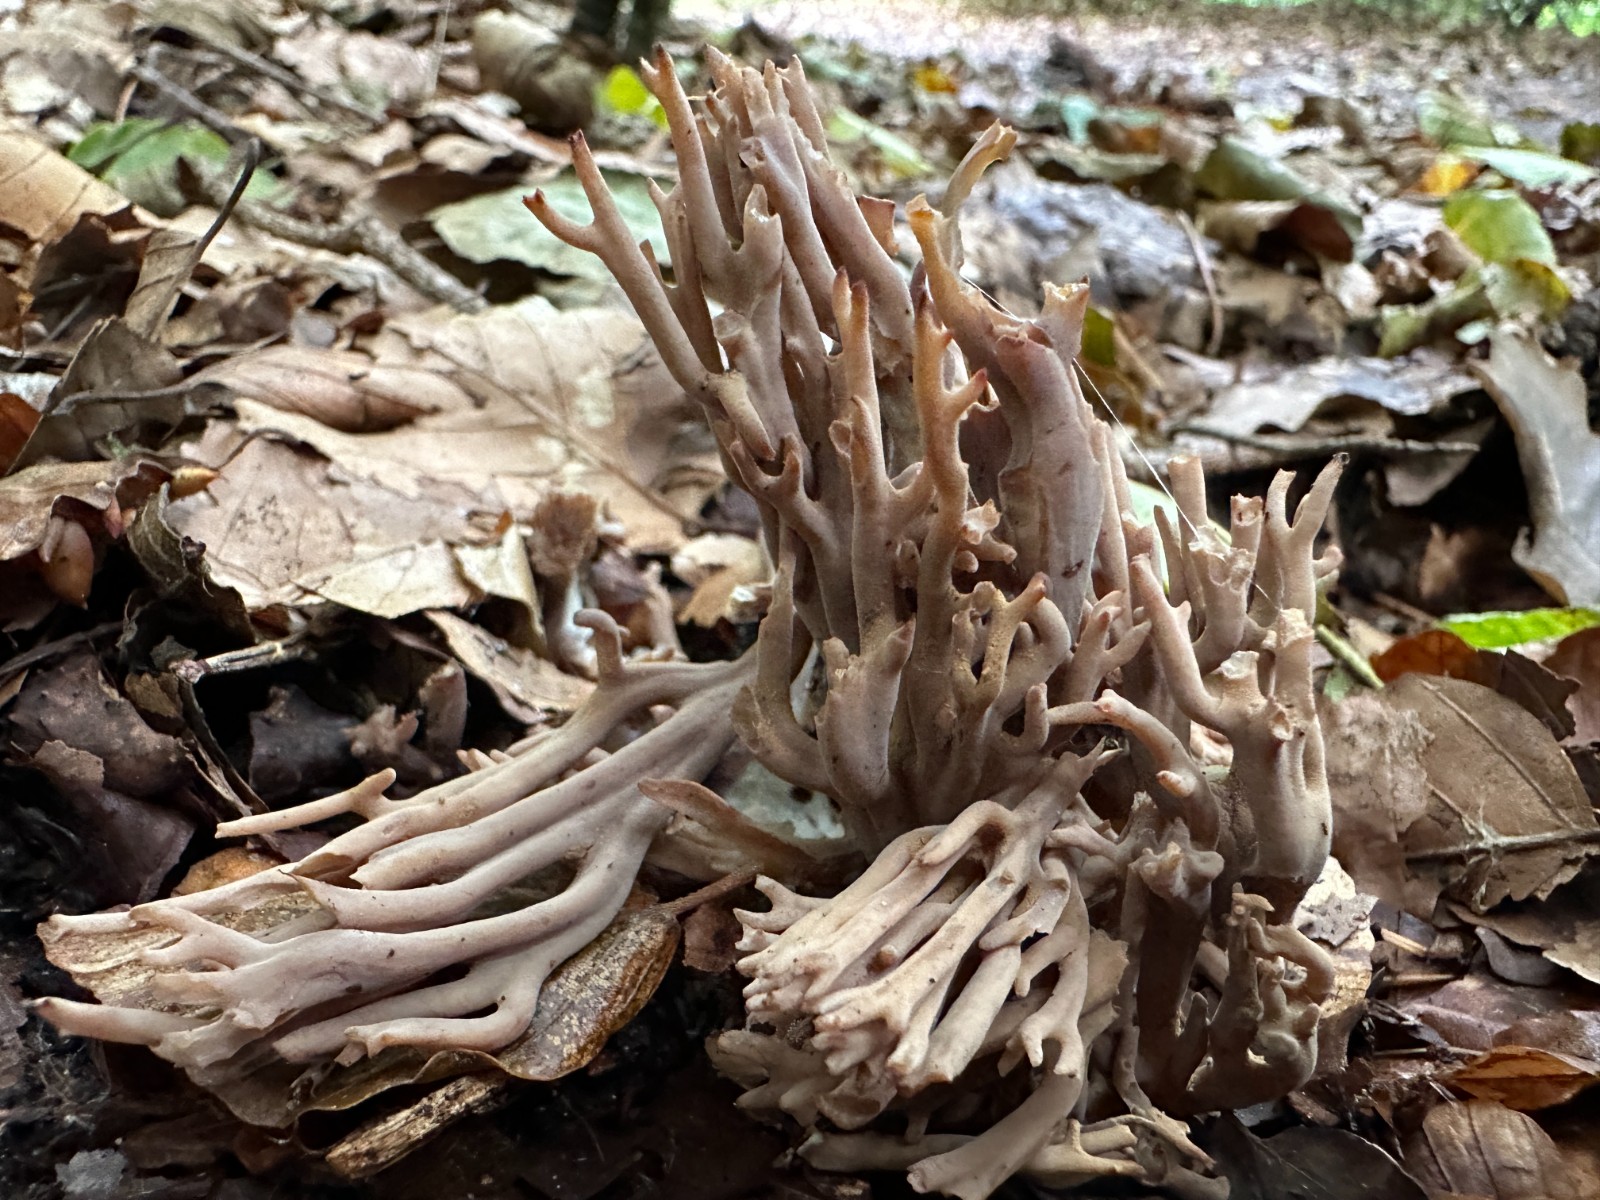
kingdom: Fungi
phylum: Basidiomycota
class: Agaricomycetes
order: Gomphales
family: Gomphaceae
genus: Ramaria
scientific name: Ramaria fumigata
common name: violet koralsvamp
